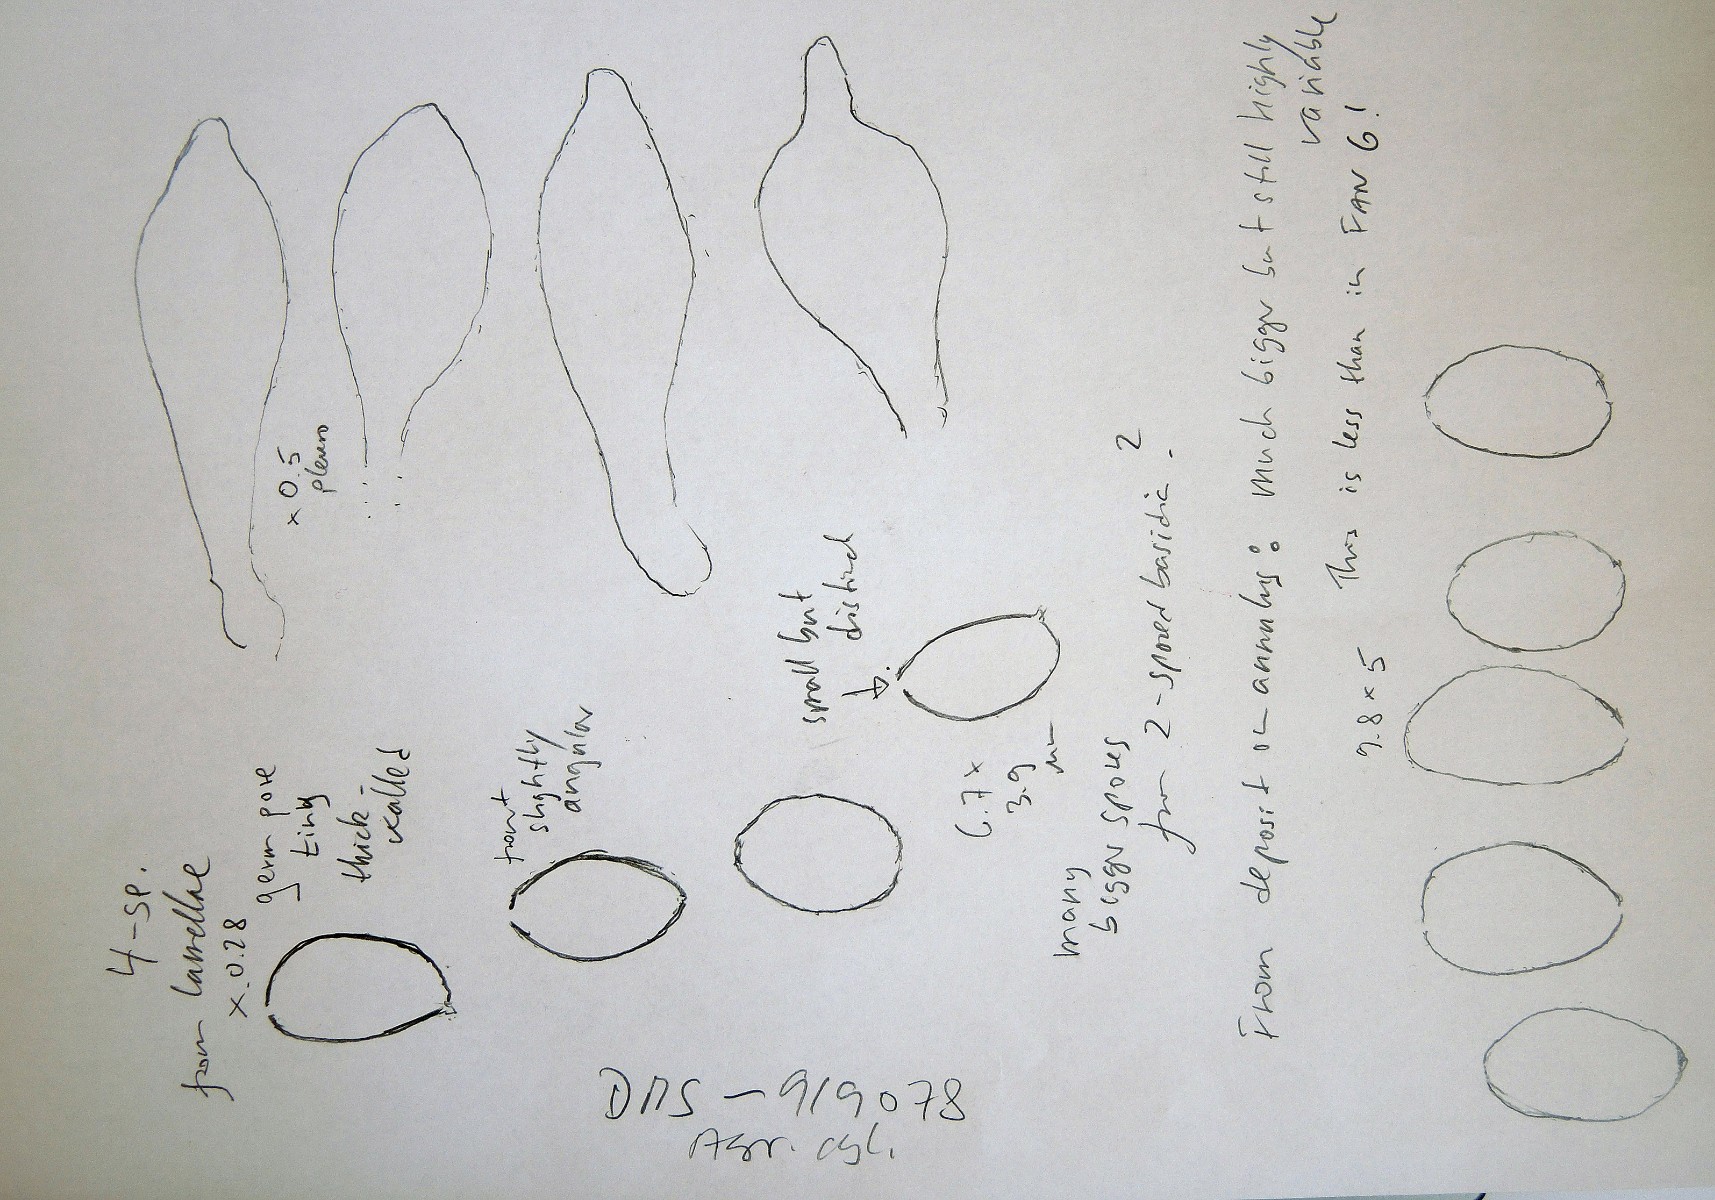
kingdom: Fungi
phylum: Basidiomycota
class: Agaricomycetes
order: Agaricales
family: Tubariaceae
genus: Cyclocybe
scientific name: Cyclocybe cylindracea
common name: poppel-agerhat
